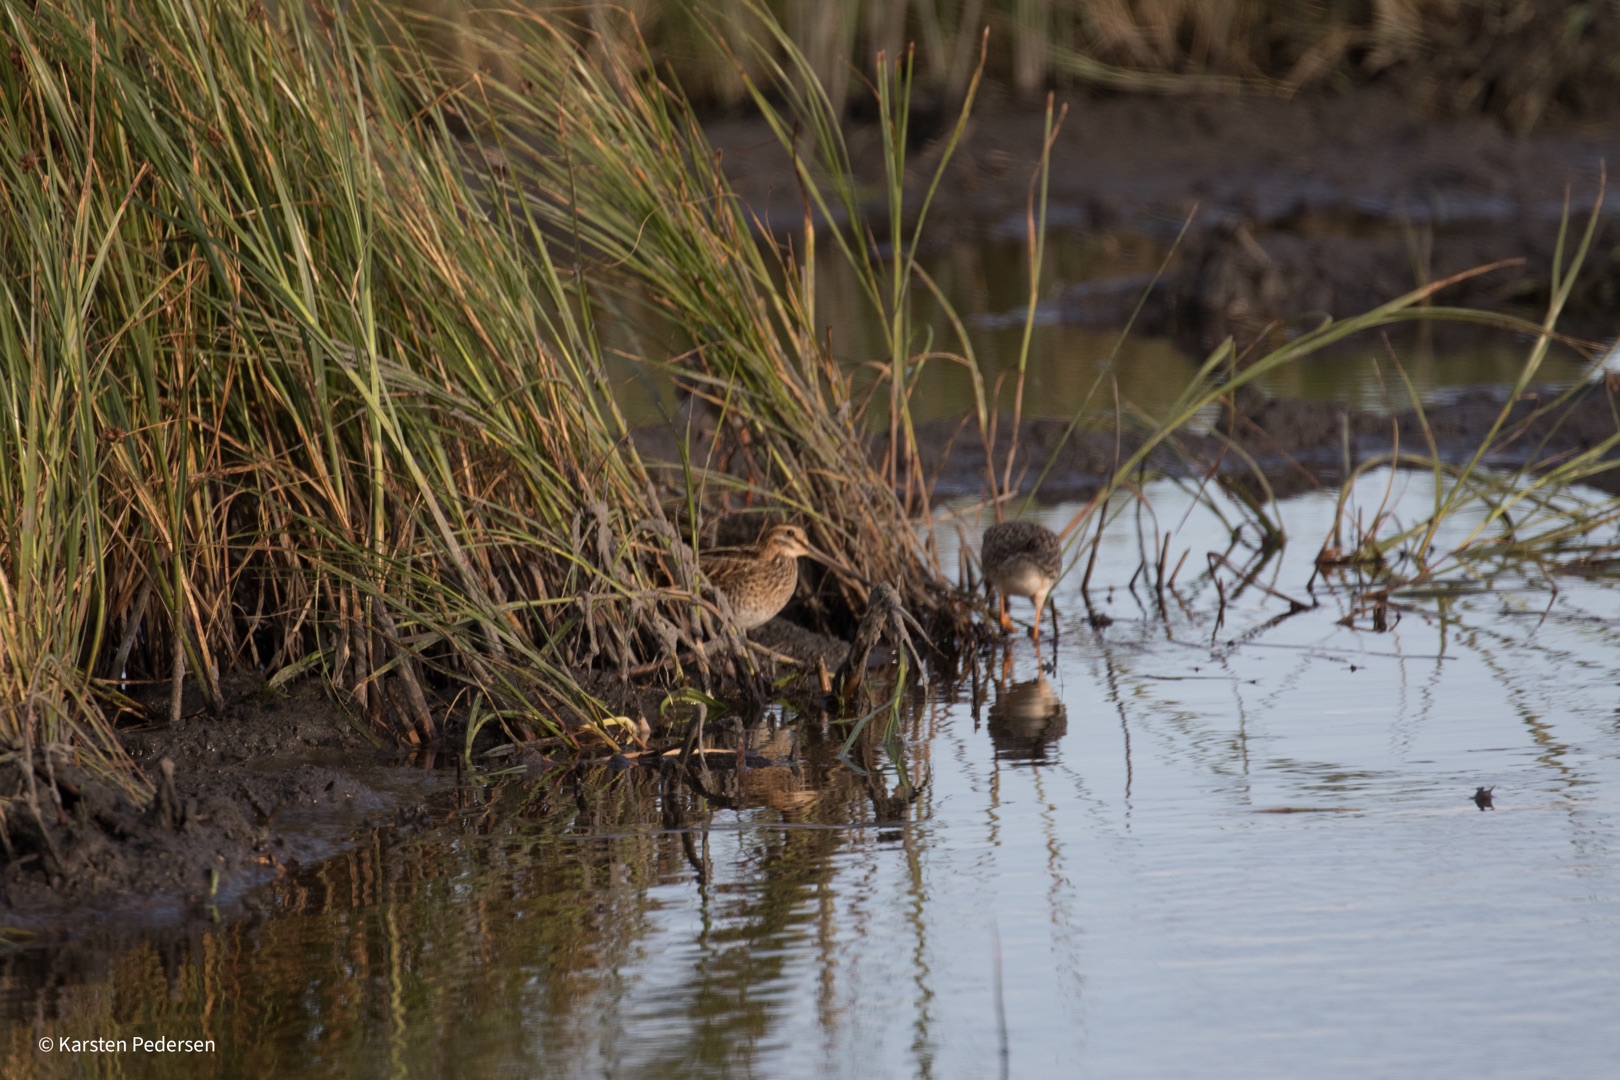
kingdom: Animalia
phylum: Chordata
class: Aves
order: Charadriiformes
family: Scolopacidae
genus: Gallinago
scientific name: Gallinago gallinago
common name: Dobbeltbekkasin
